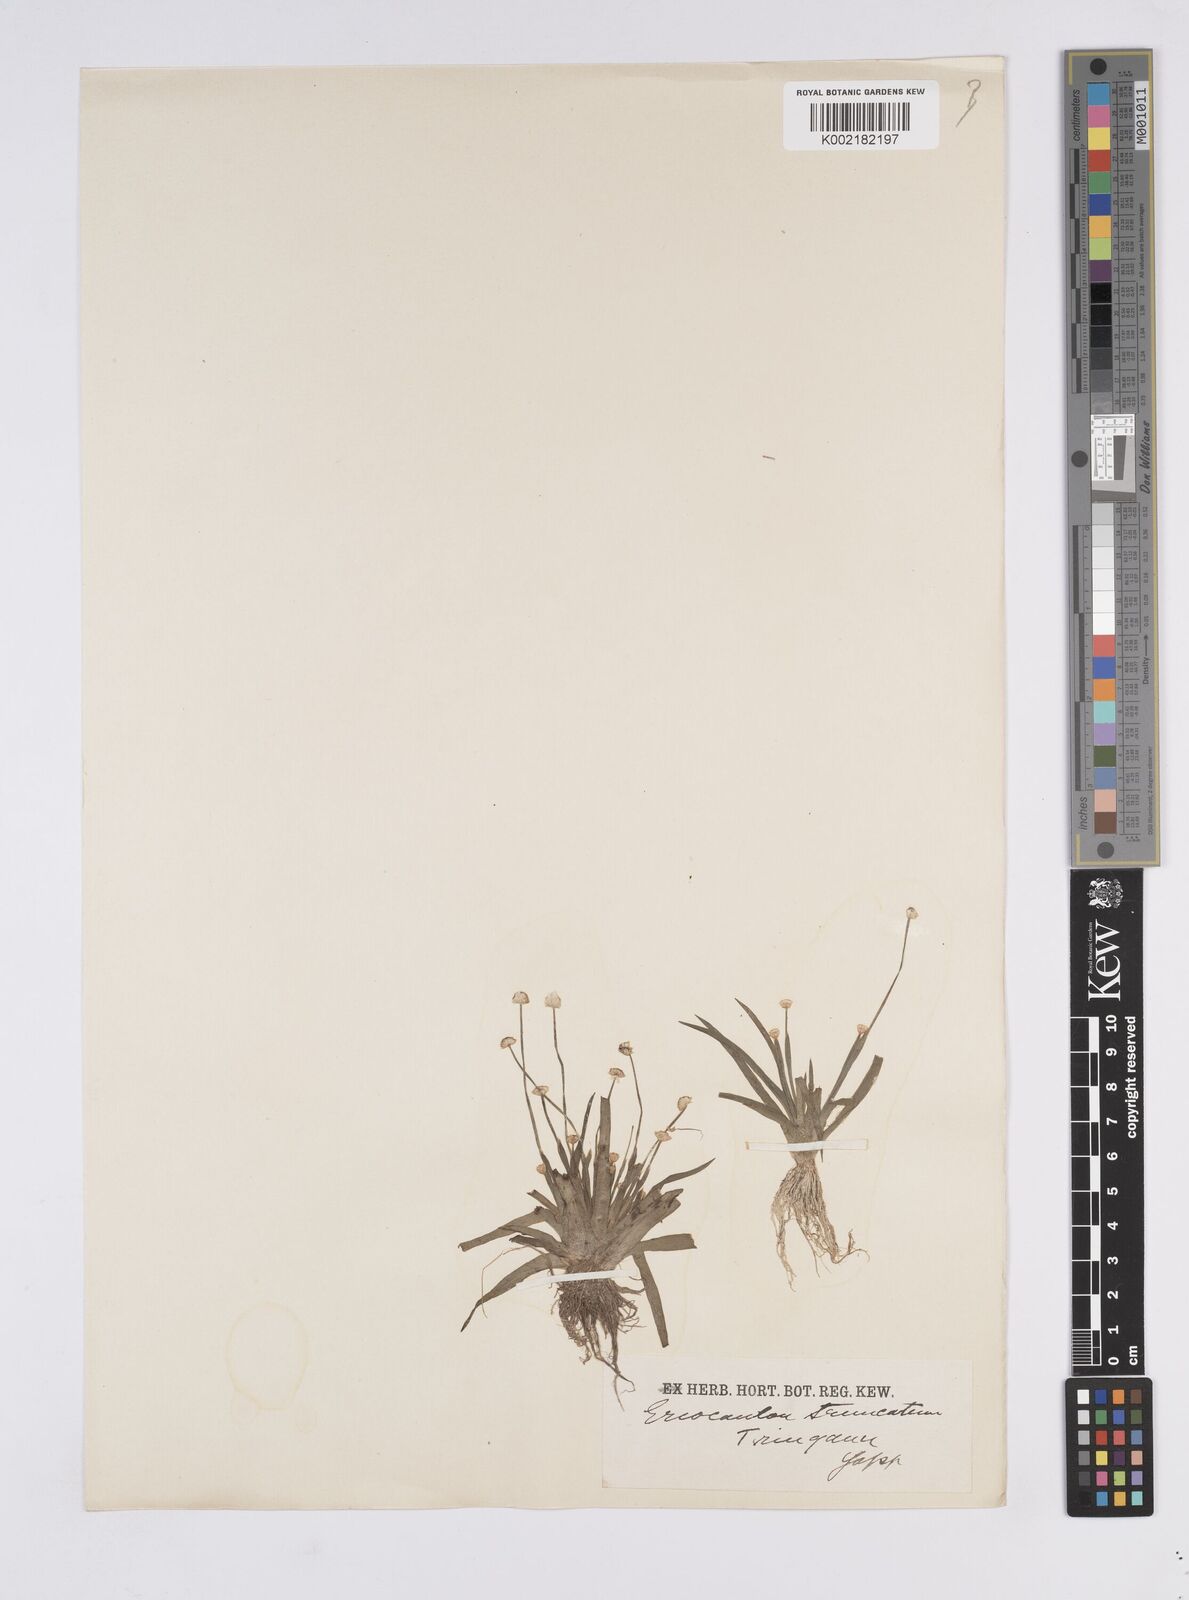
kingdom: Plantae
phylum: Tracheophyta
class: Liliopsida
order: Poales
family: Eriocaulaceae
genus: Eriocaulon
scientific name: Eriocaulon truncatum
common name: Short pipe-wort
